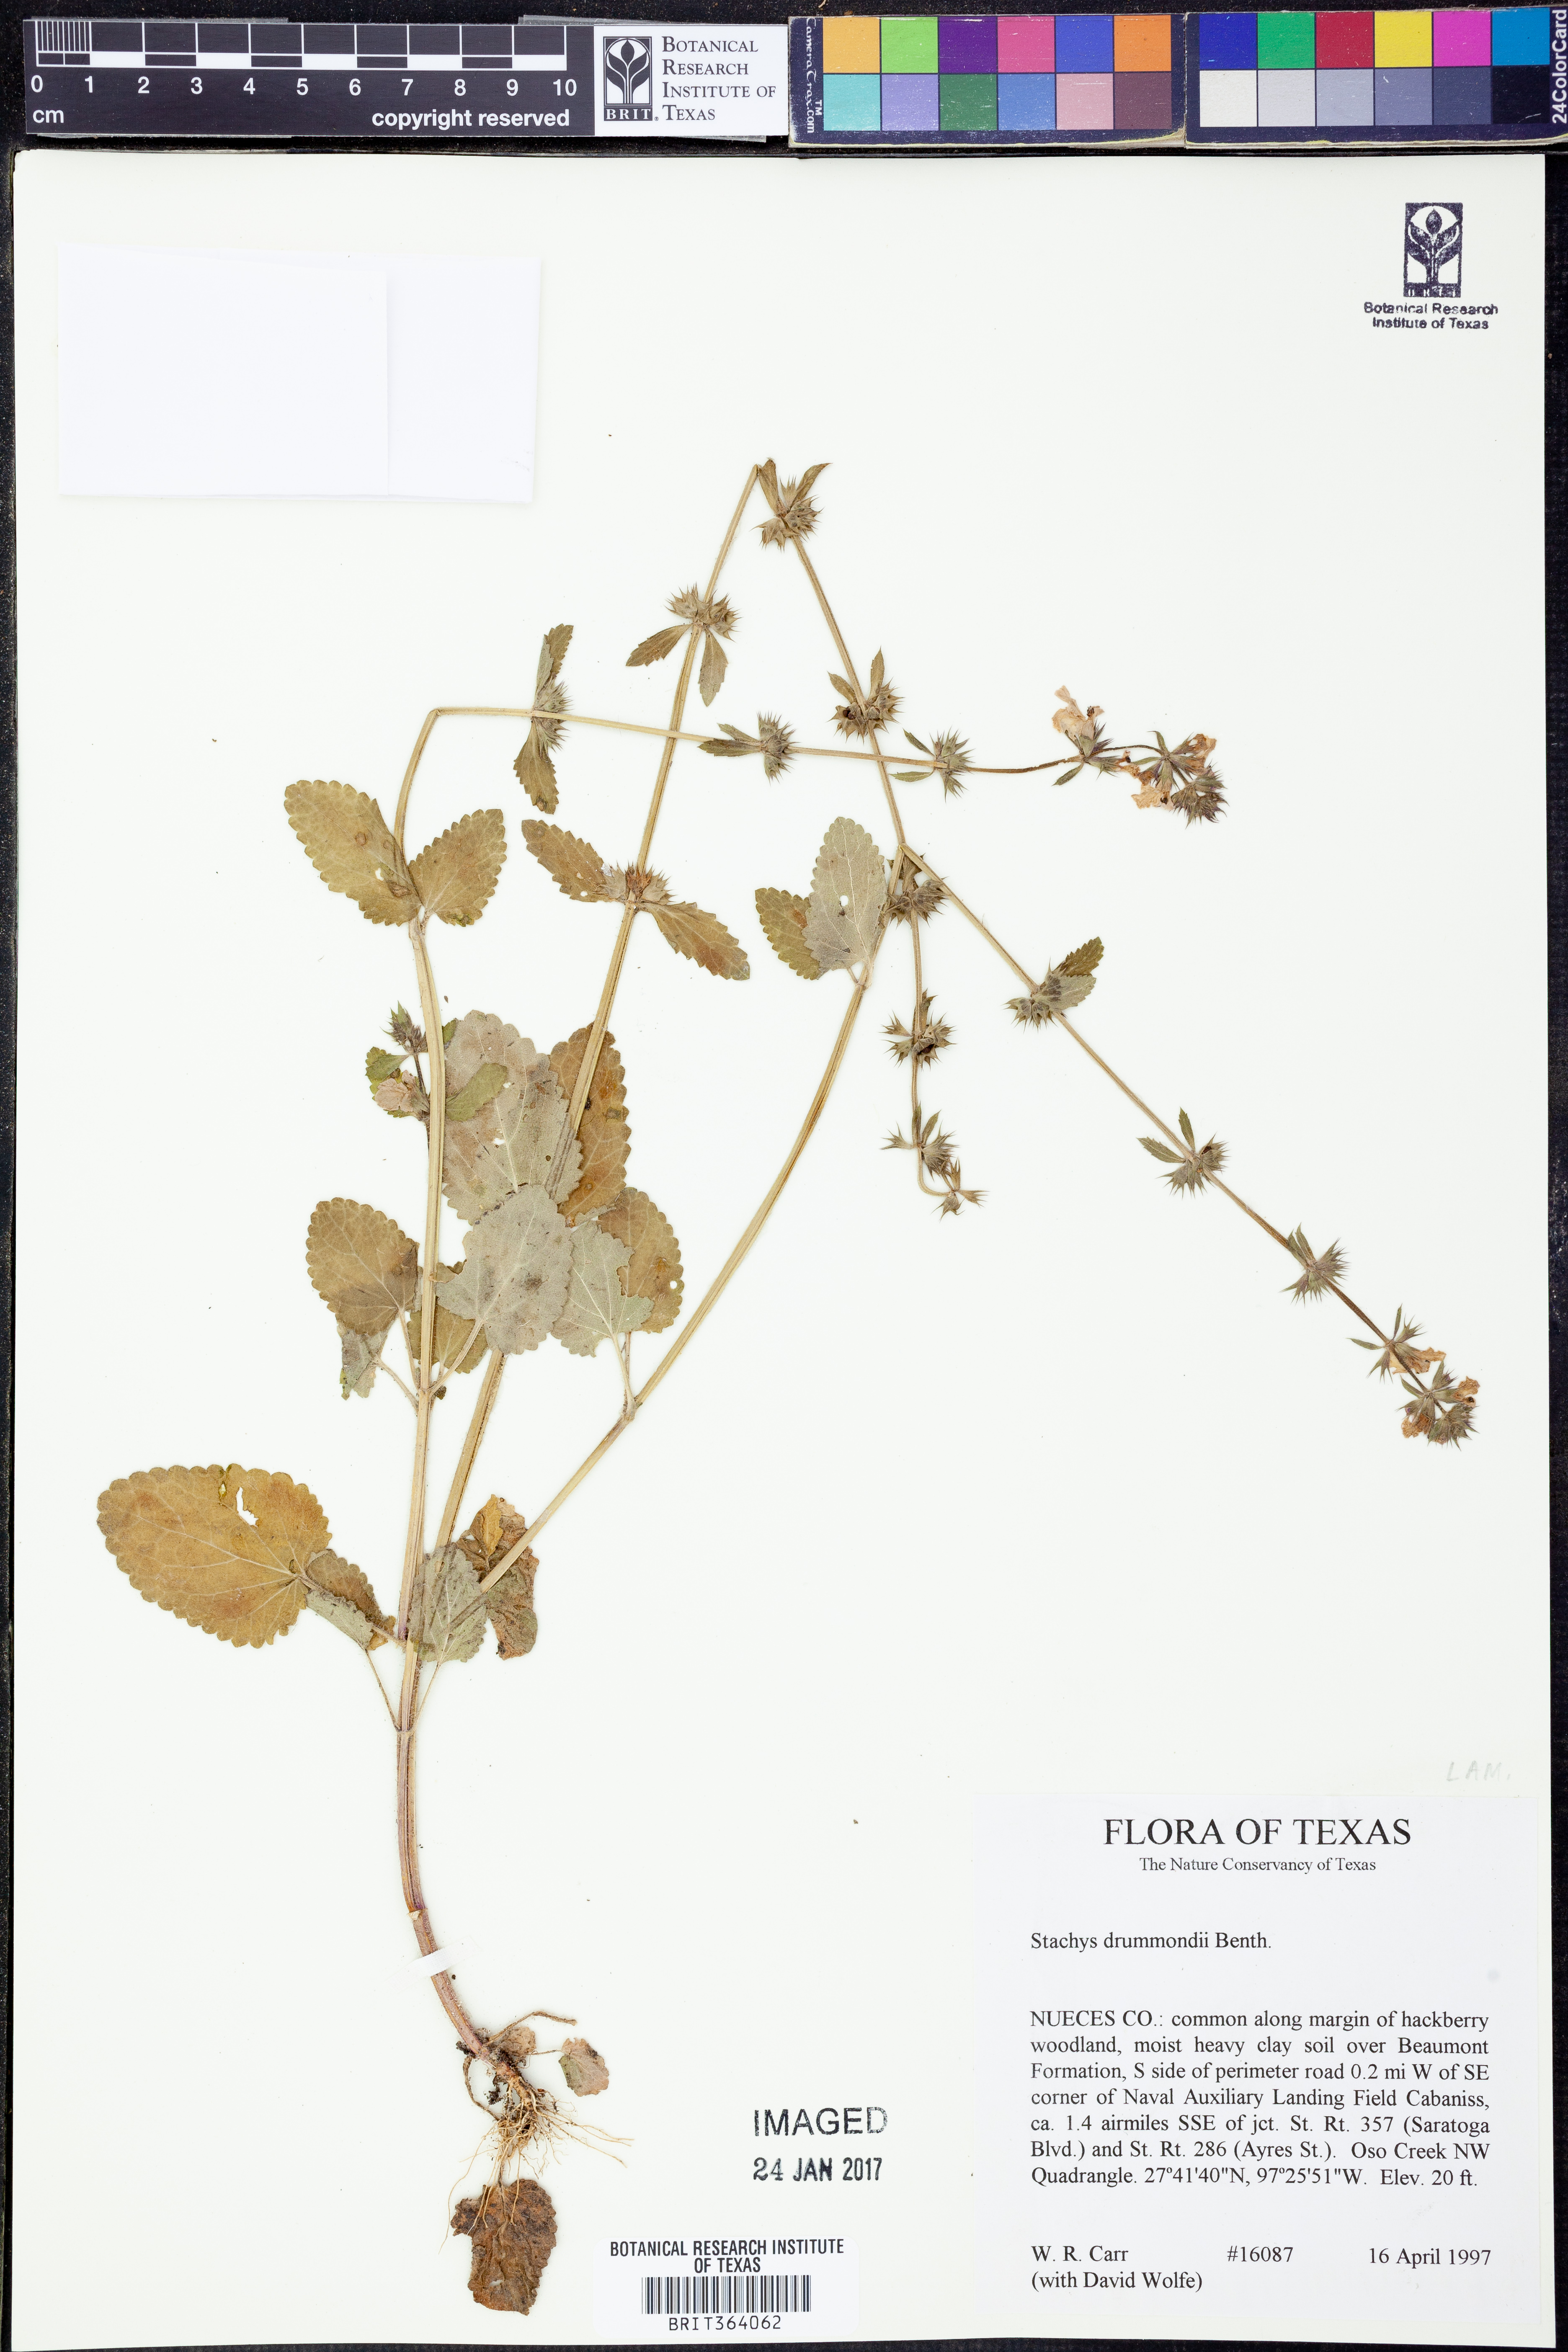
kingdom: Plantae
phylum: Tracheophyta
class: Magnoliopsida
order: Lamiales
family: Lamiaceae
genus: Stachys
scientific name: Stachys drummondii
